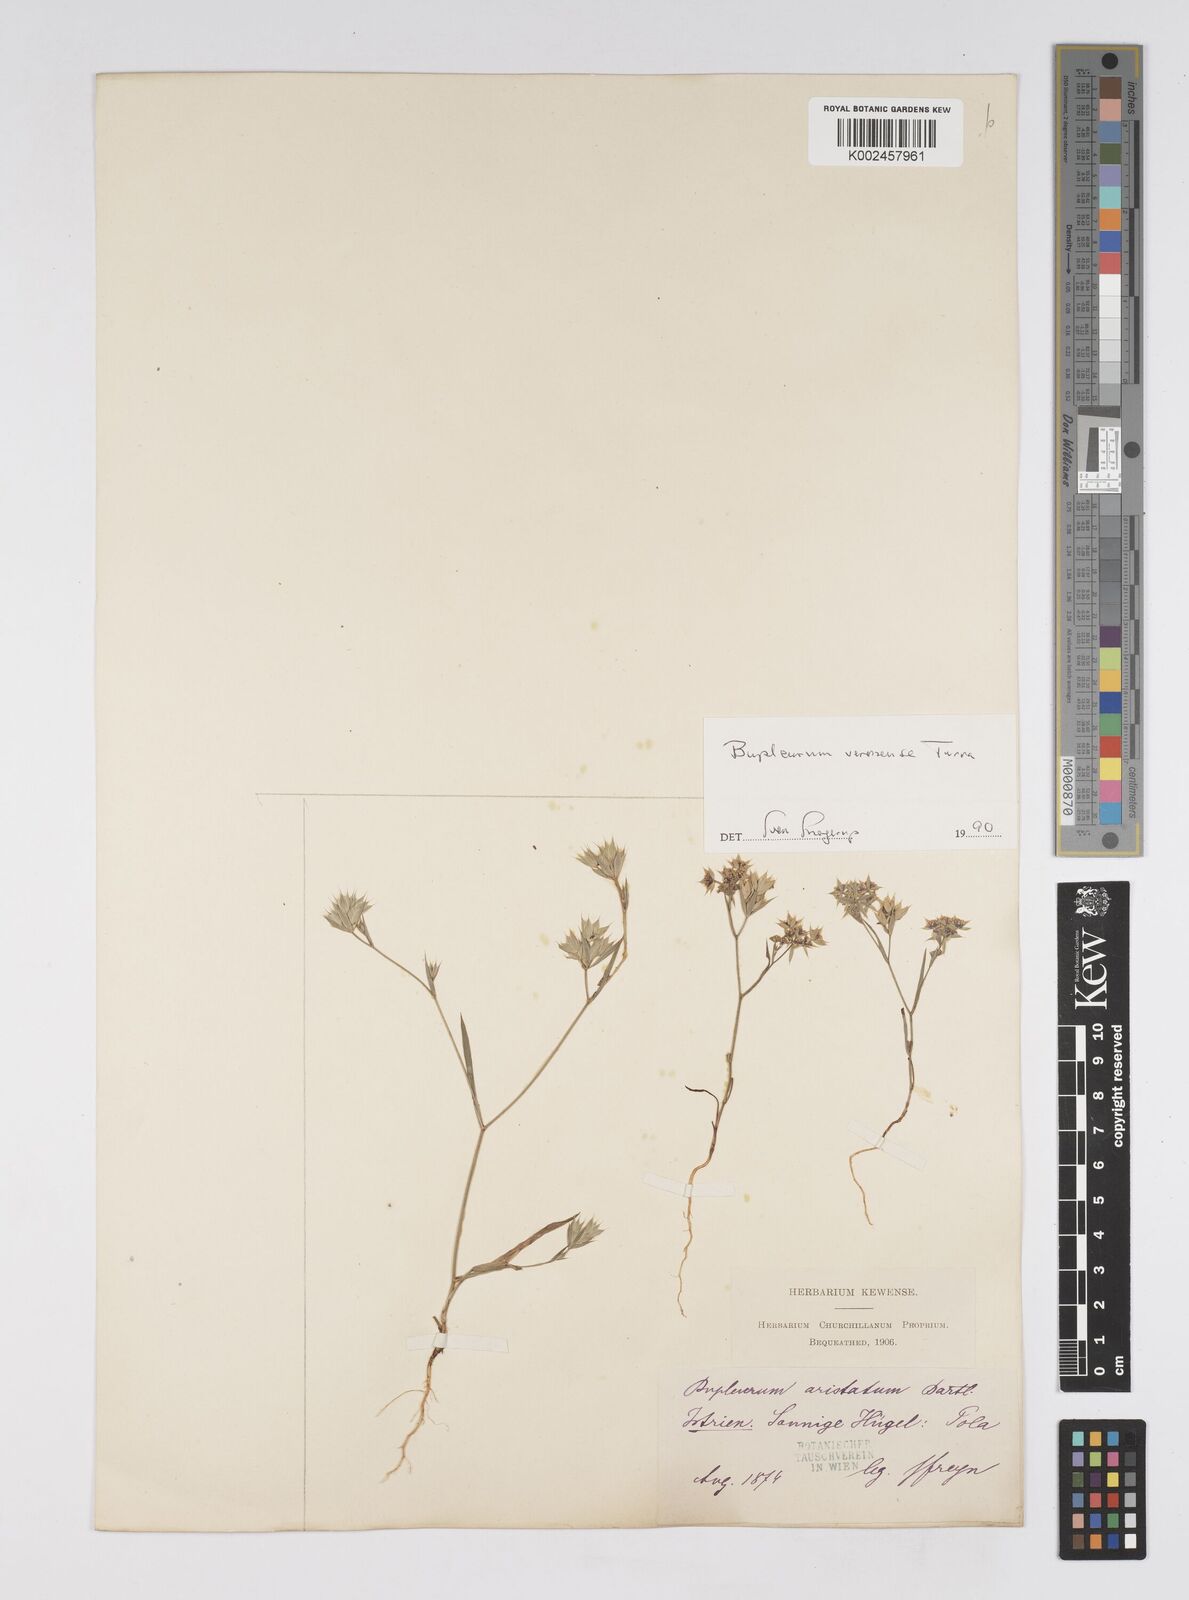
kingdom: Plantae
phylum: Tracheophyta
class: Magnoliopsida
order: Apiales
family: Apiaceae
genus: Bupleurum
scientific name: Bupleurum glumaceum
